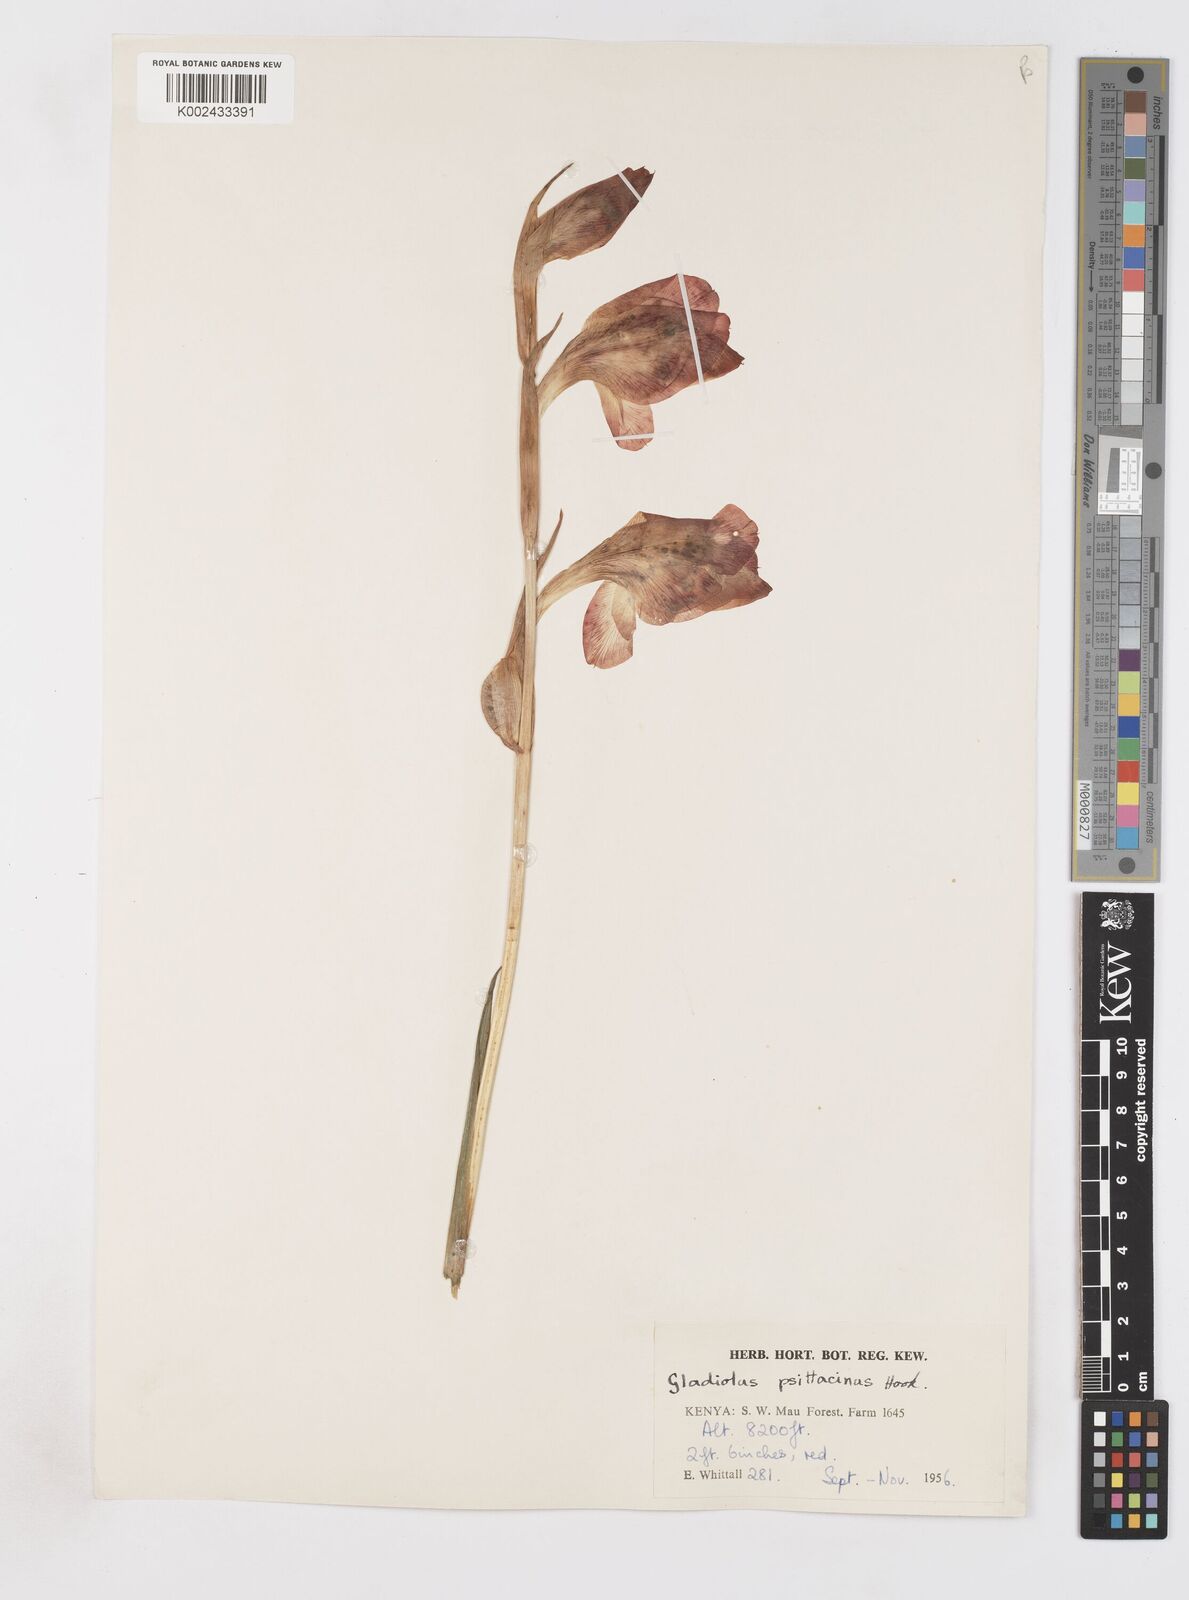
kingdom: Plantae
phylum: Tracheophyta
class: Liliopsida
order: Asparagales
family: Iridaceae
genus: Gladiolus
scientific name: Gladiolus dalenii
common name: Cornflag
